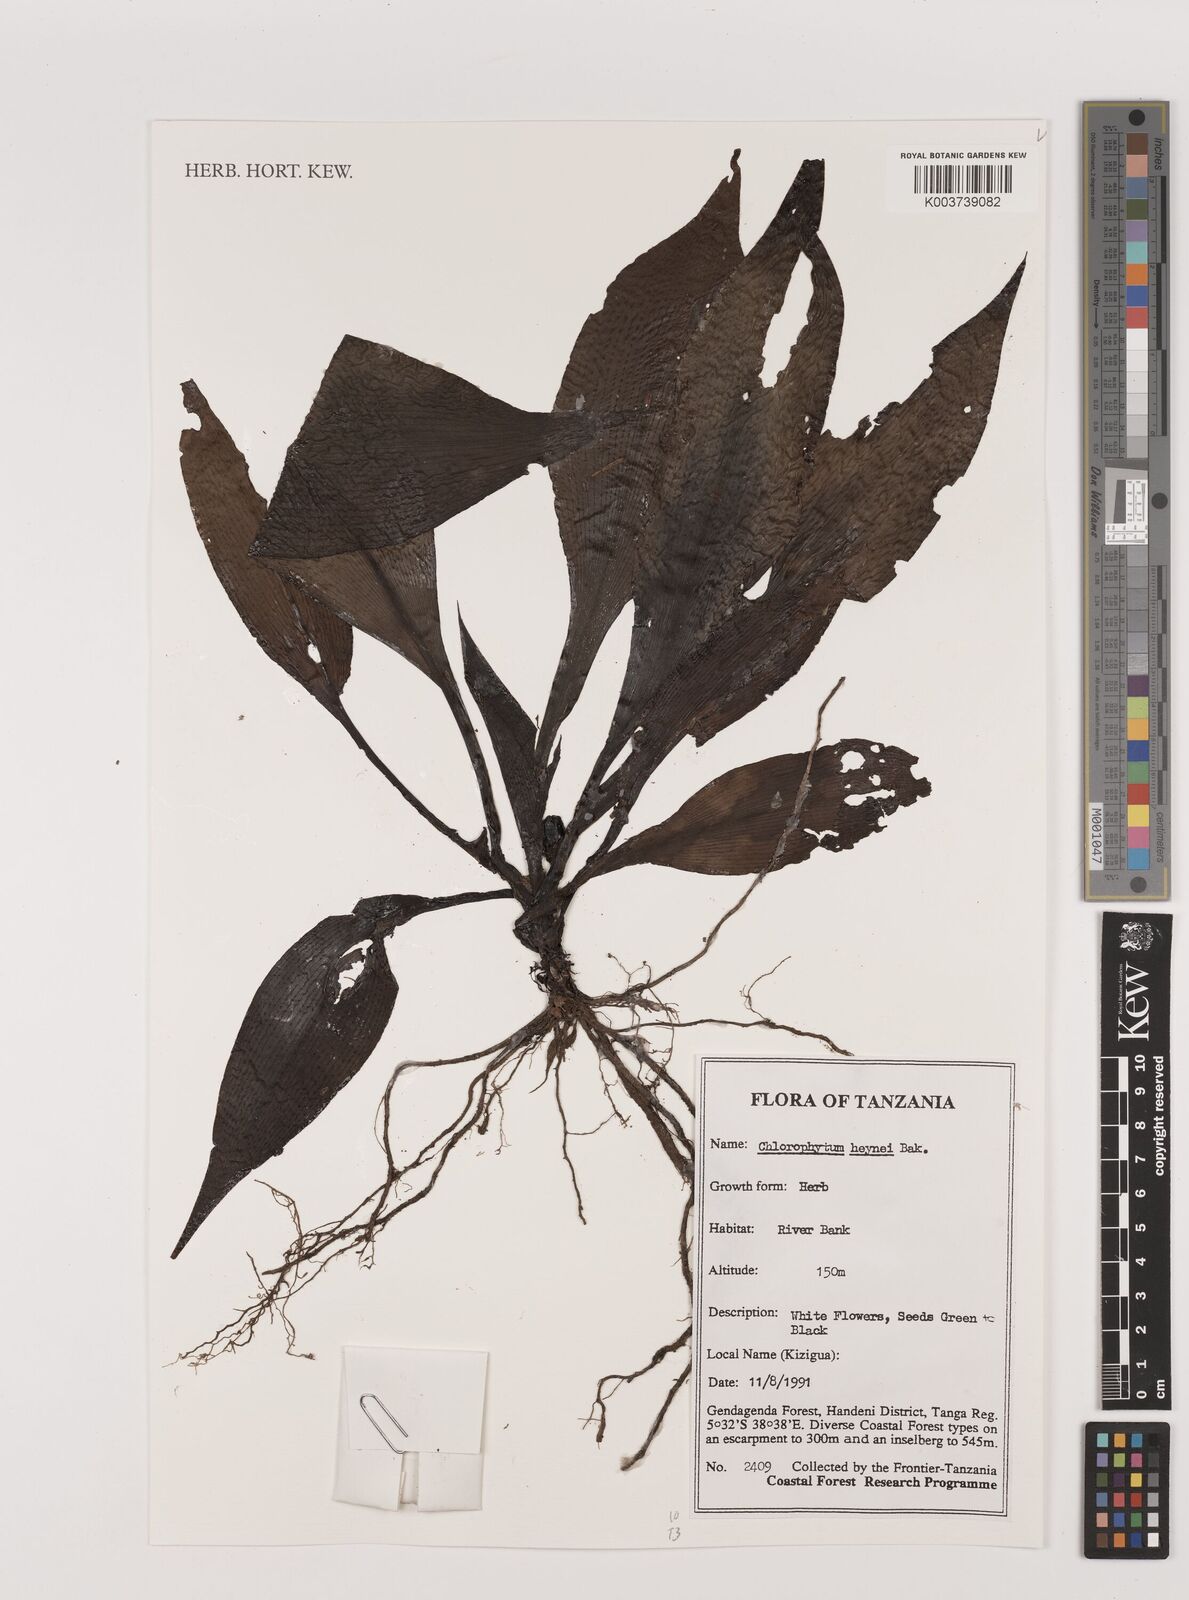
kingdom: Plantae
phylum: Tracheophyta
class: Liliopsida
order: Asparagales
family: Asparagaceae
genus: Chlorophytum
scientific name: Chlorophytum heynei
